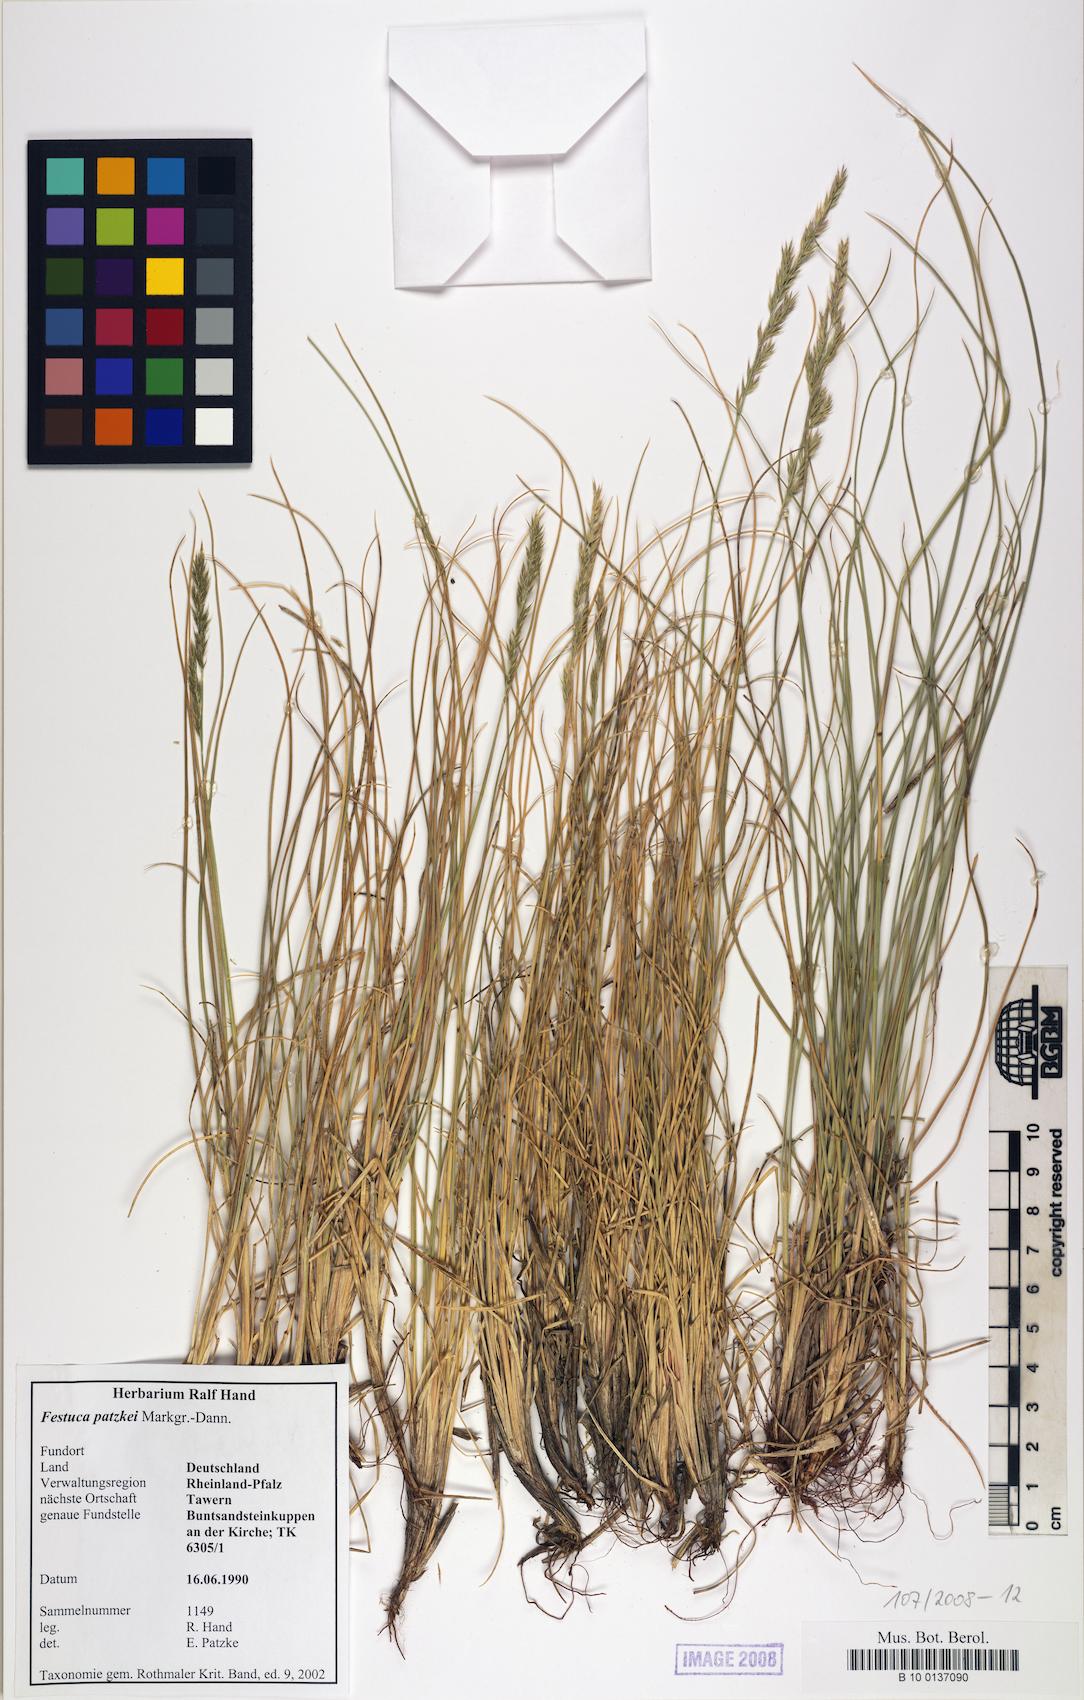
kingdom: Plantae
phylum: Tracheophyta
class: Liliopsida
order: Poales
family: Poaceae
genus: Festuca
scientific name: Festuca patzkei
